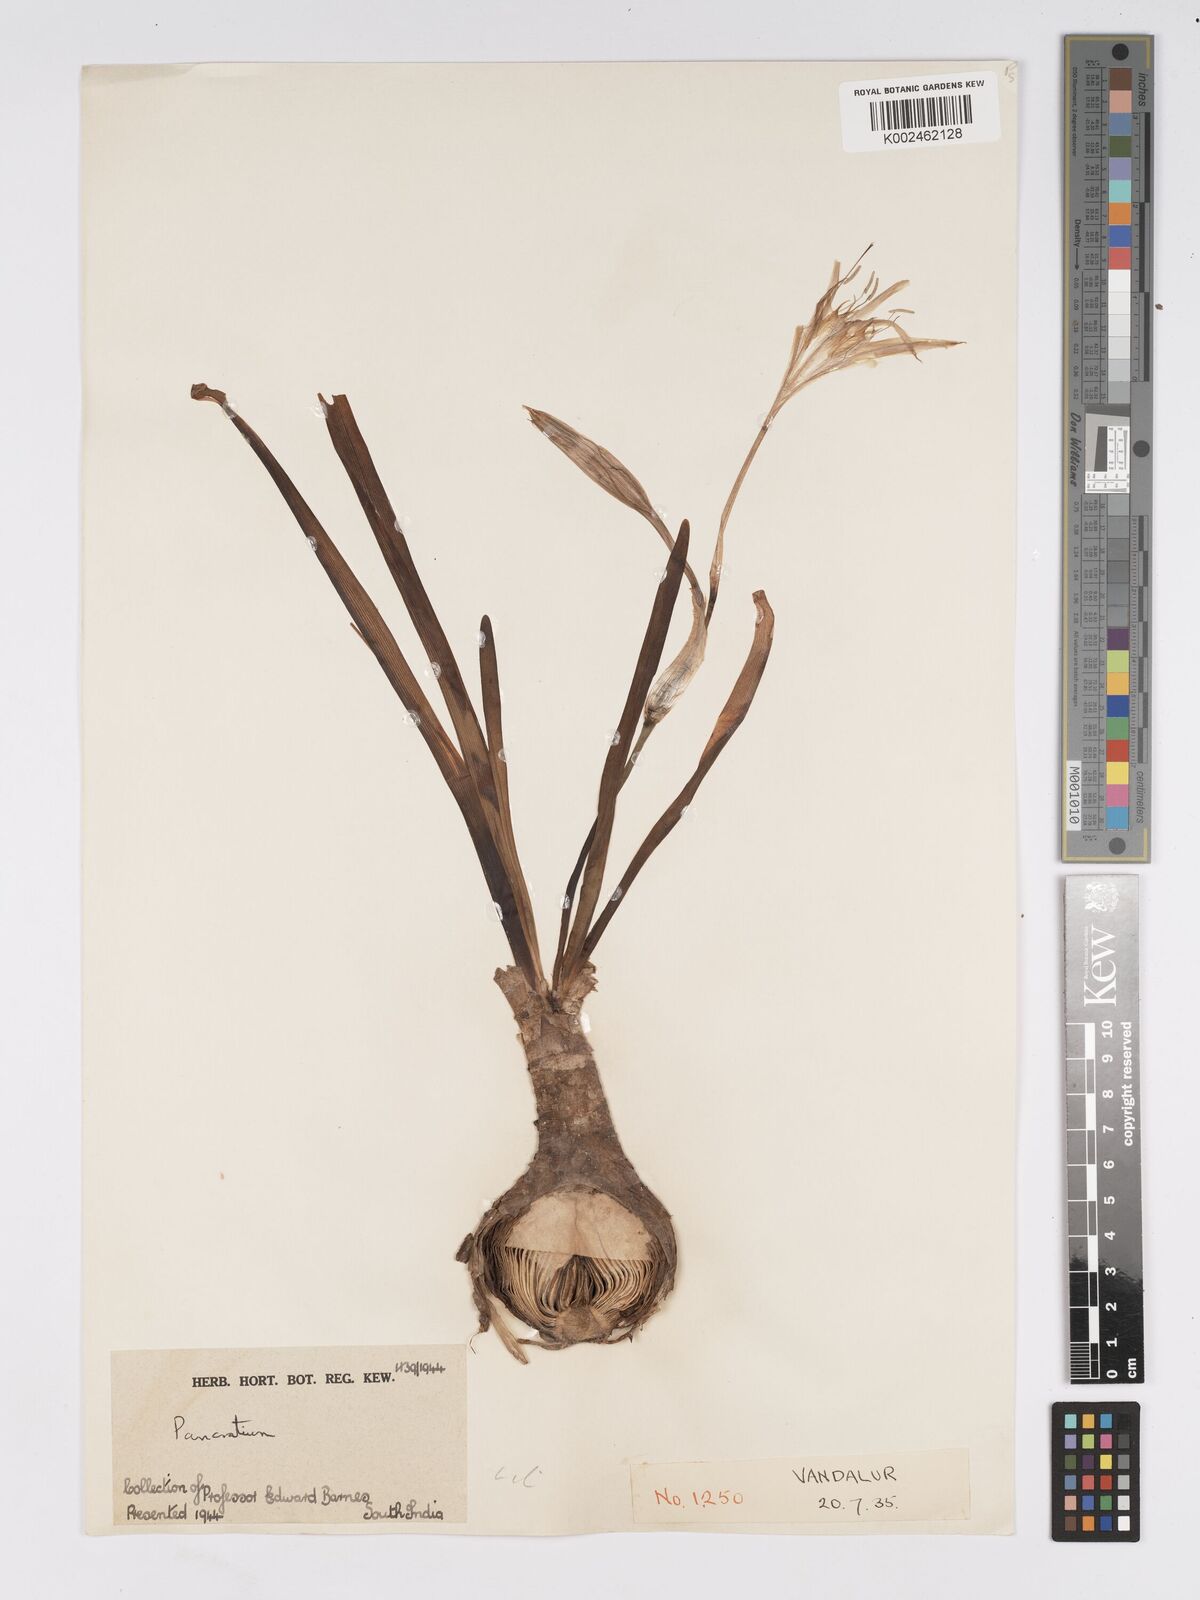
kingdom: Plantae
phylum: Tracheophyta
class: Liliopsida
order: Asparagales
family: Amaryllidaceae
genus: Pancratium
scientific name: Pancratium verecundum
